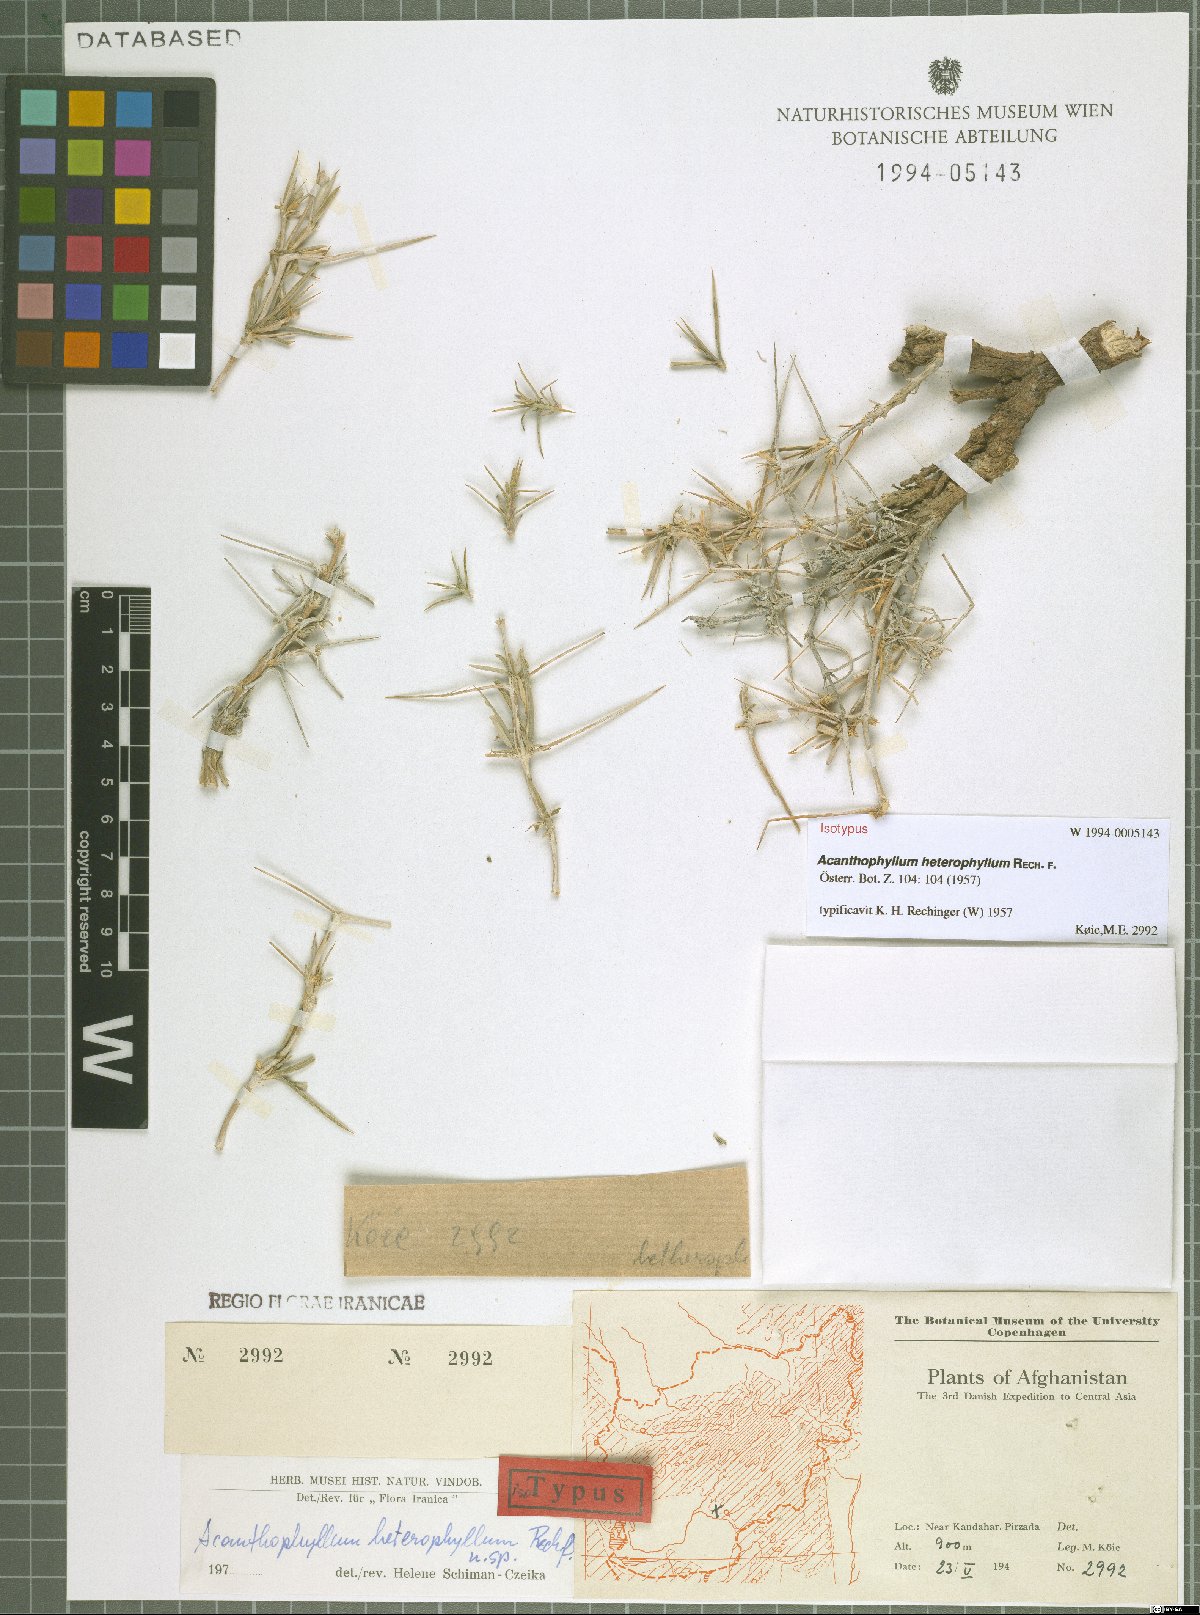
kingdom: Plantae
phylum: Tracheophyta
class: Magnoliopsida
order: Caryophyllales
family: Caryophyllaceae
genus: Acanthophyllum
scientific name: Acanthophyllum heterophyllum
